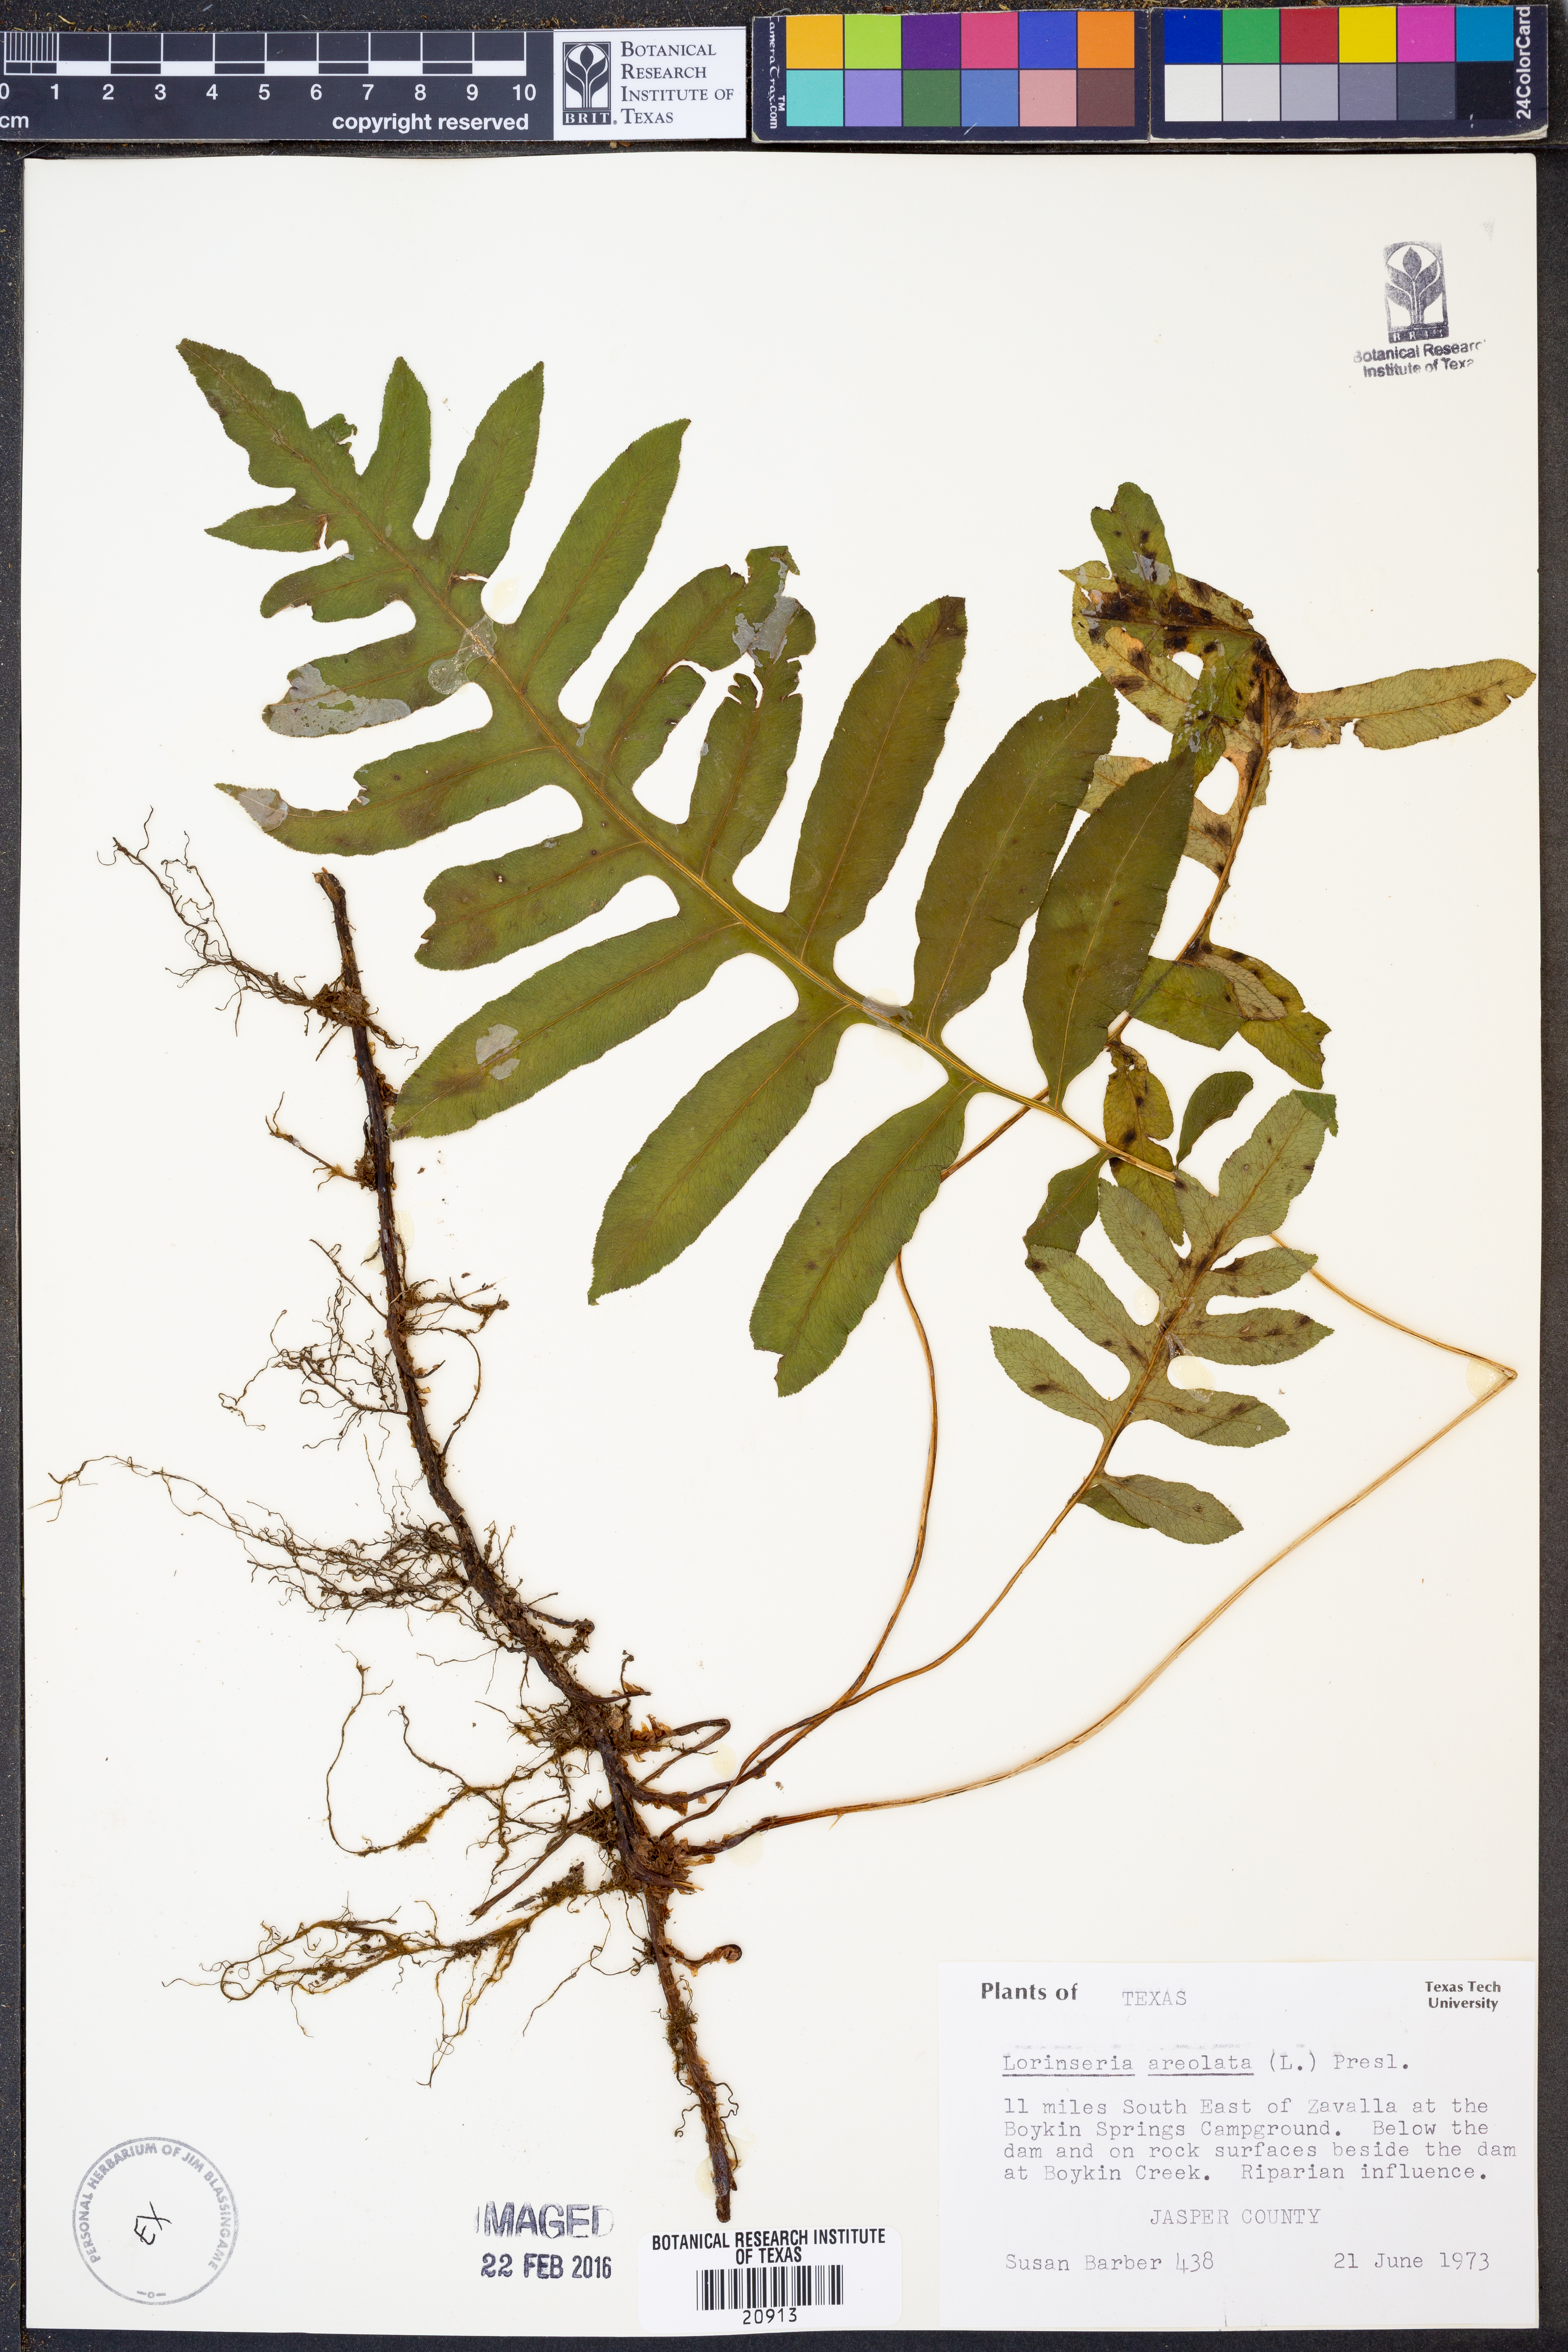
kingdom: Plantae
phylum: Tracheophyta
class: Polypodiopsida
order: Polypodiales
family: Blechnaceae
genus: Lorinseria
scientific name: Lorinseria areolata
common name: Dwarf chain fern
